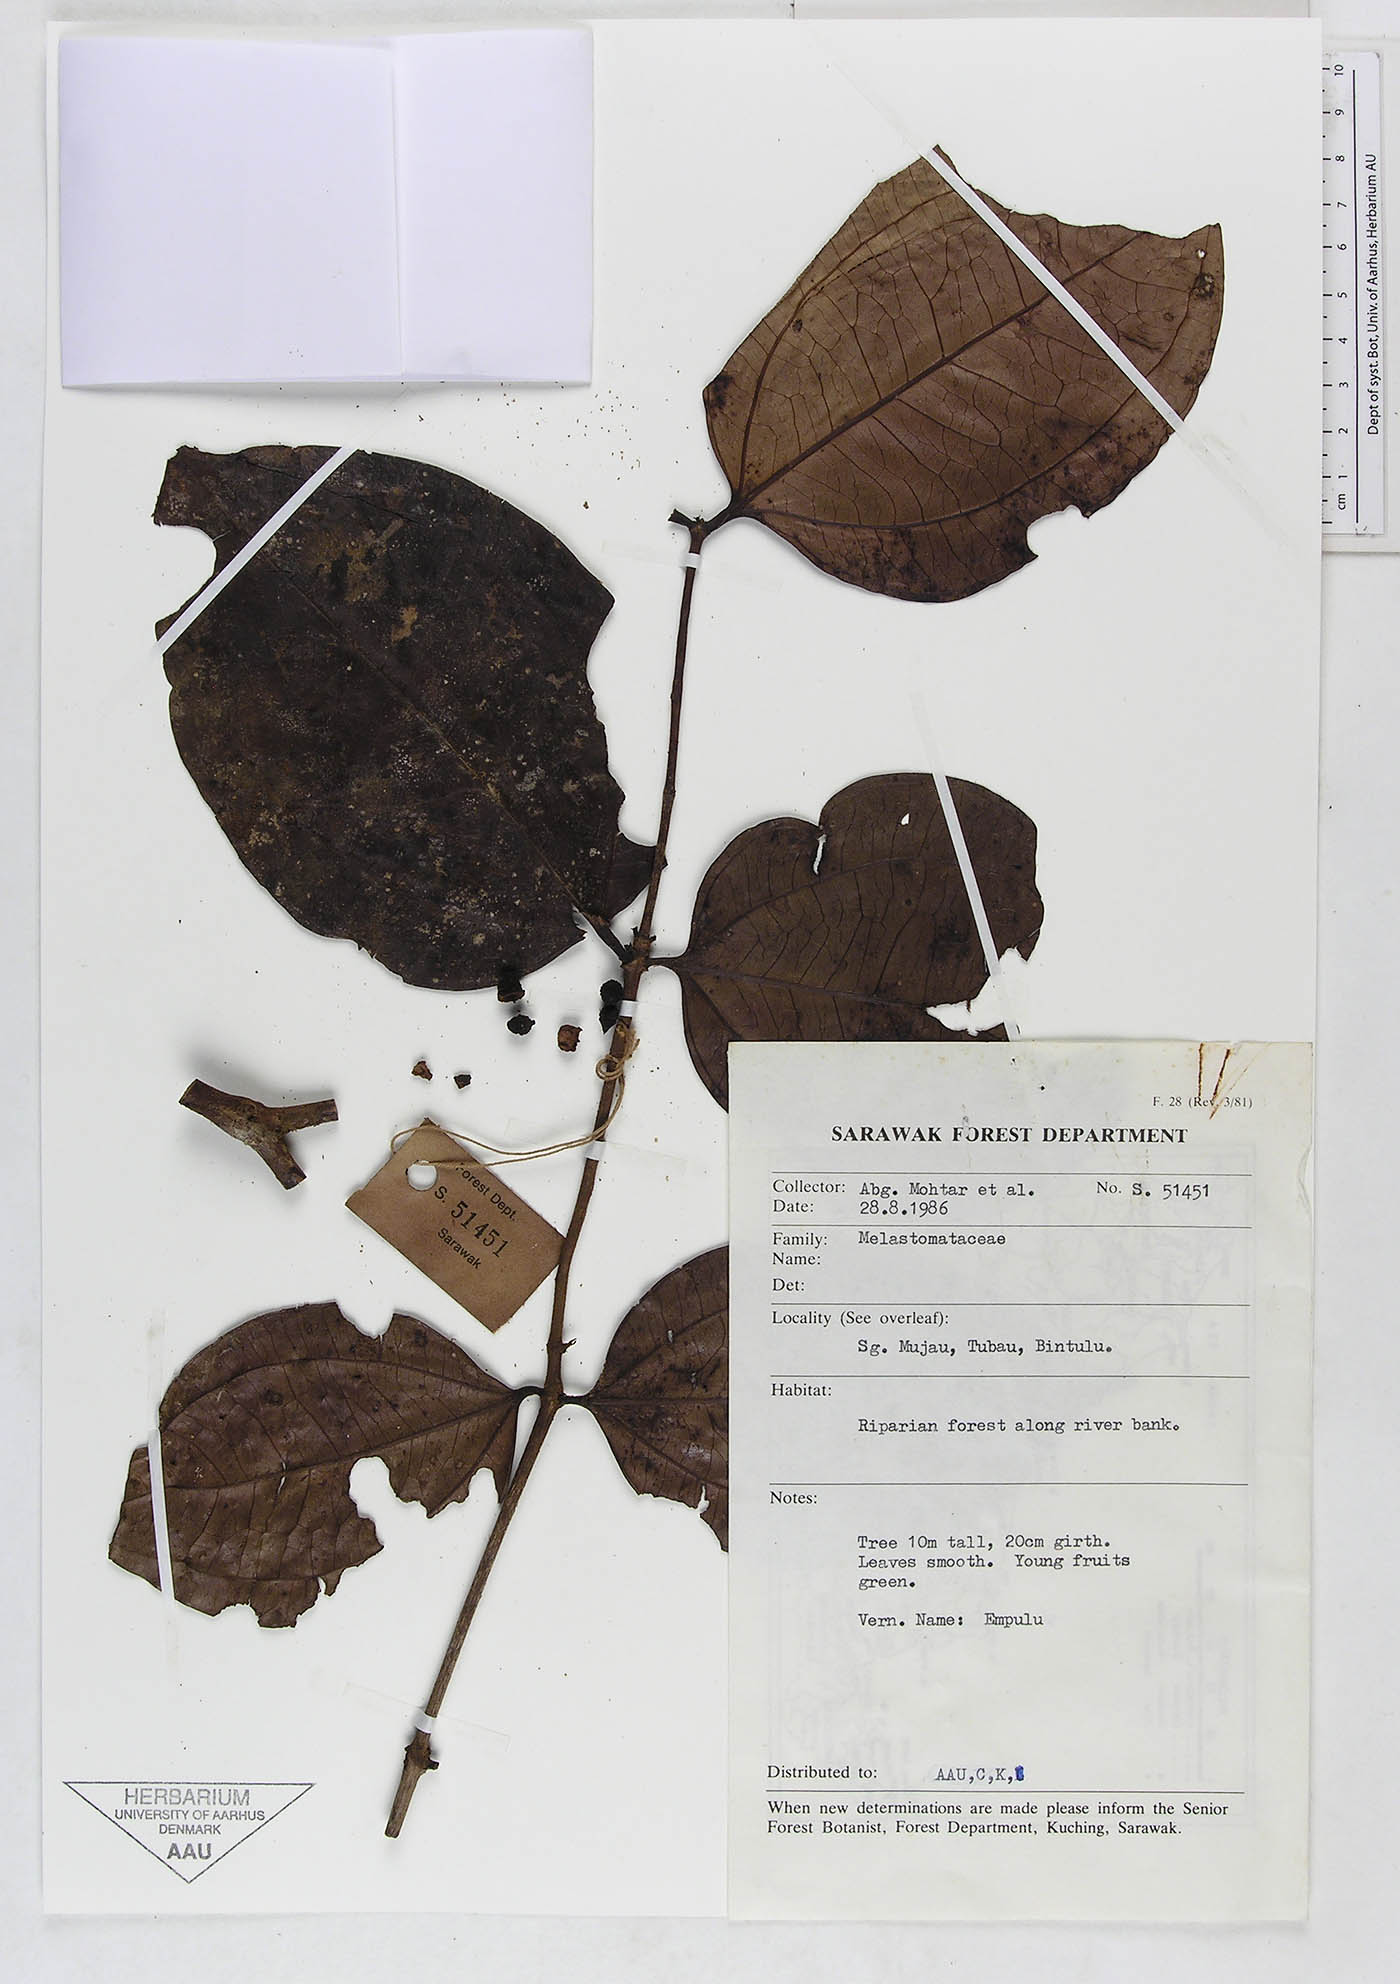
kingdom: Plantae
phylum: Tracheophyta
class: Magnoliopsida
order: Myrtales
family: Melastomataceae
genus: Pternandra
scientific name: Pternandra
